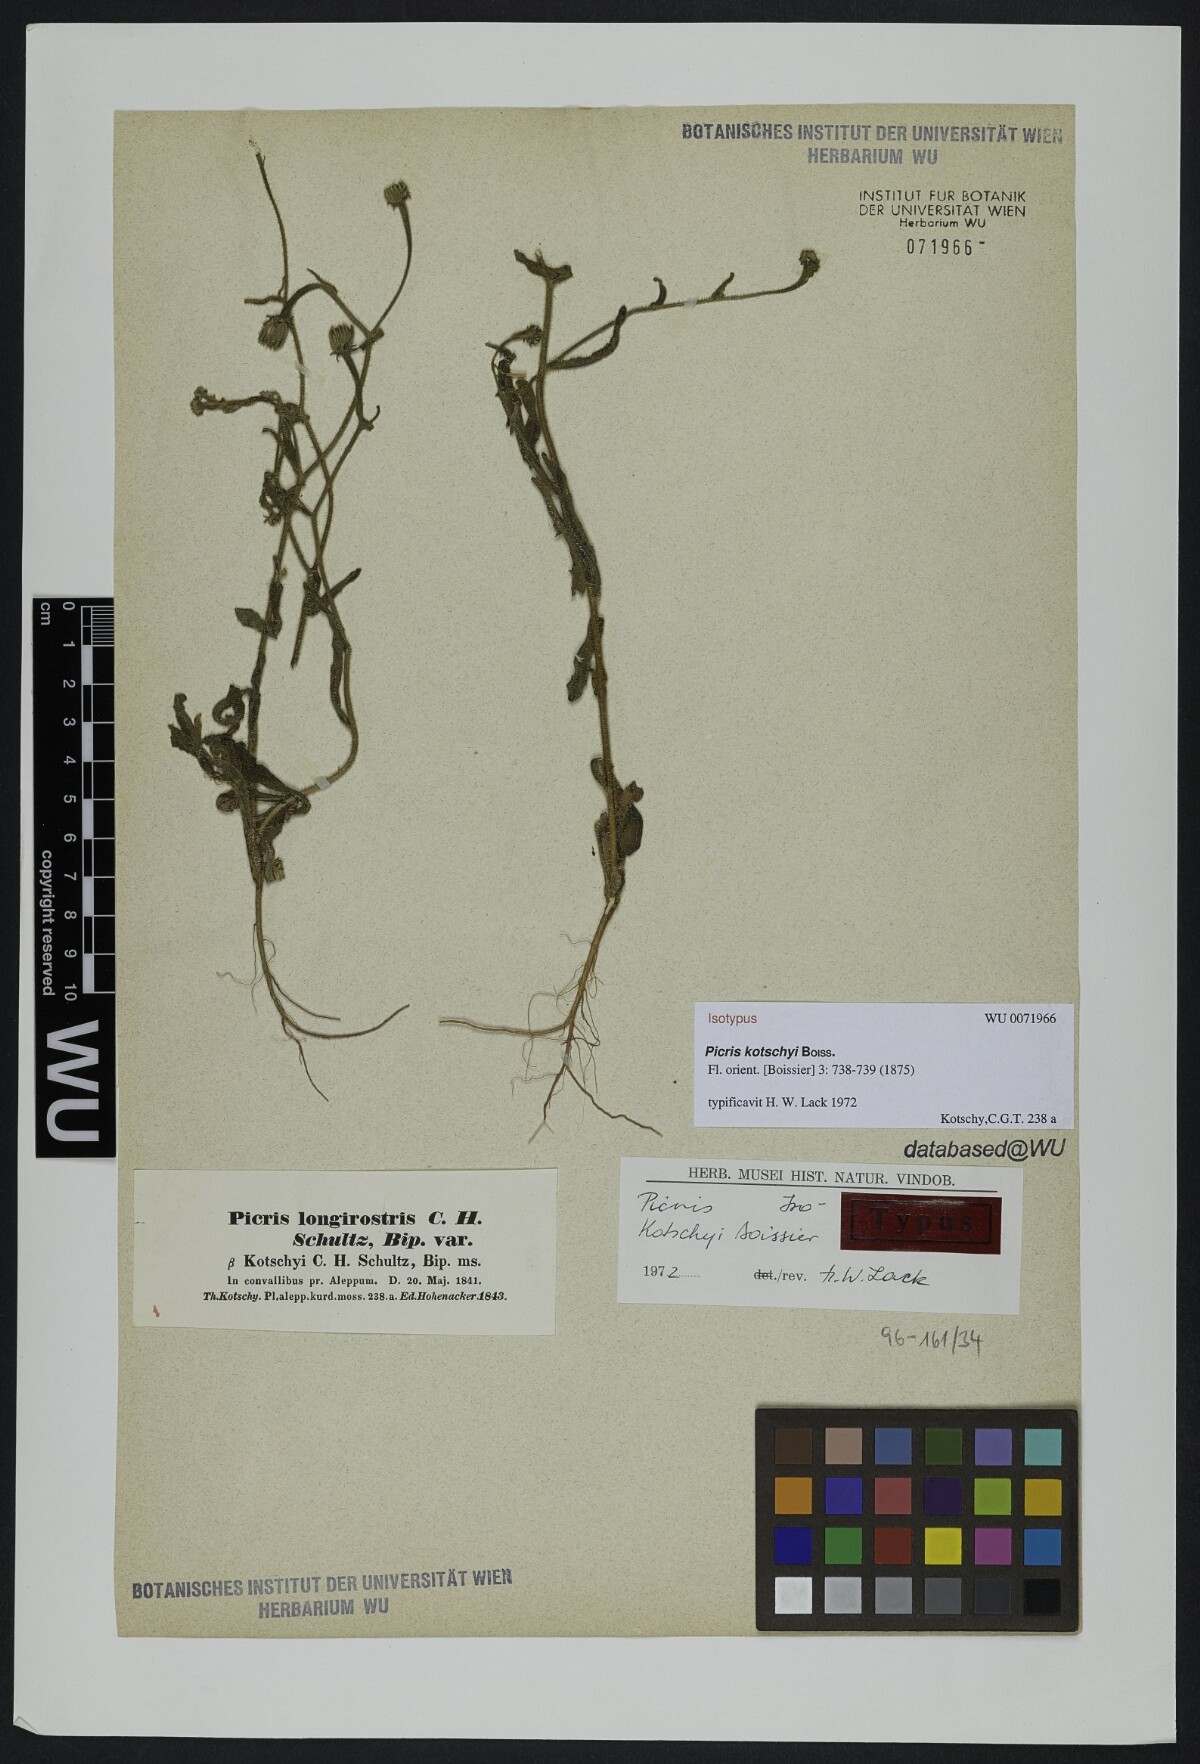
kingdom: Plantae
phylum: Tracheophyta
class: Magnoliopsida
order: Asterales
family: Asteraceae
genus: Picris
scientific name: Picris kotschyi
